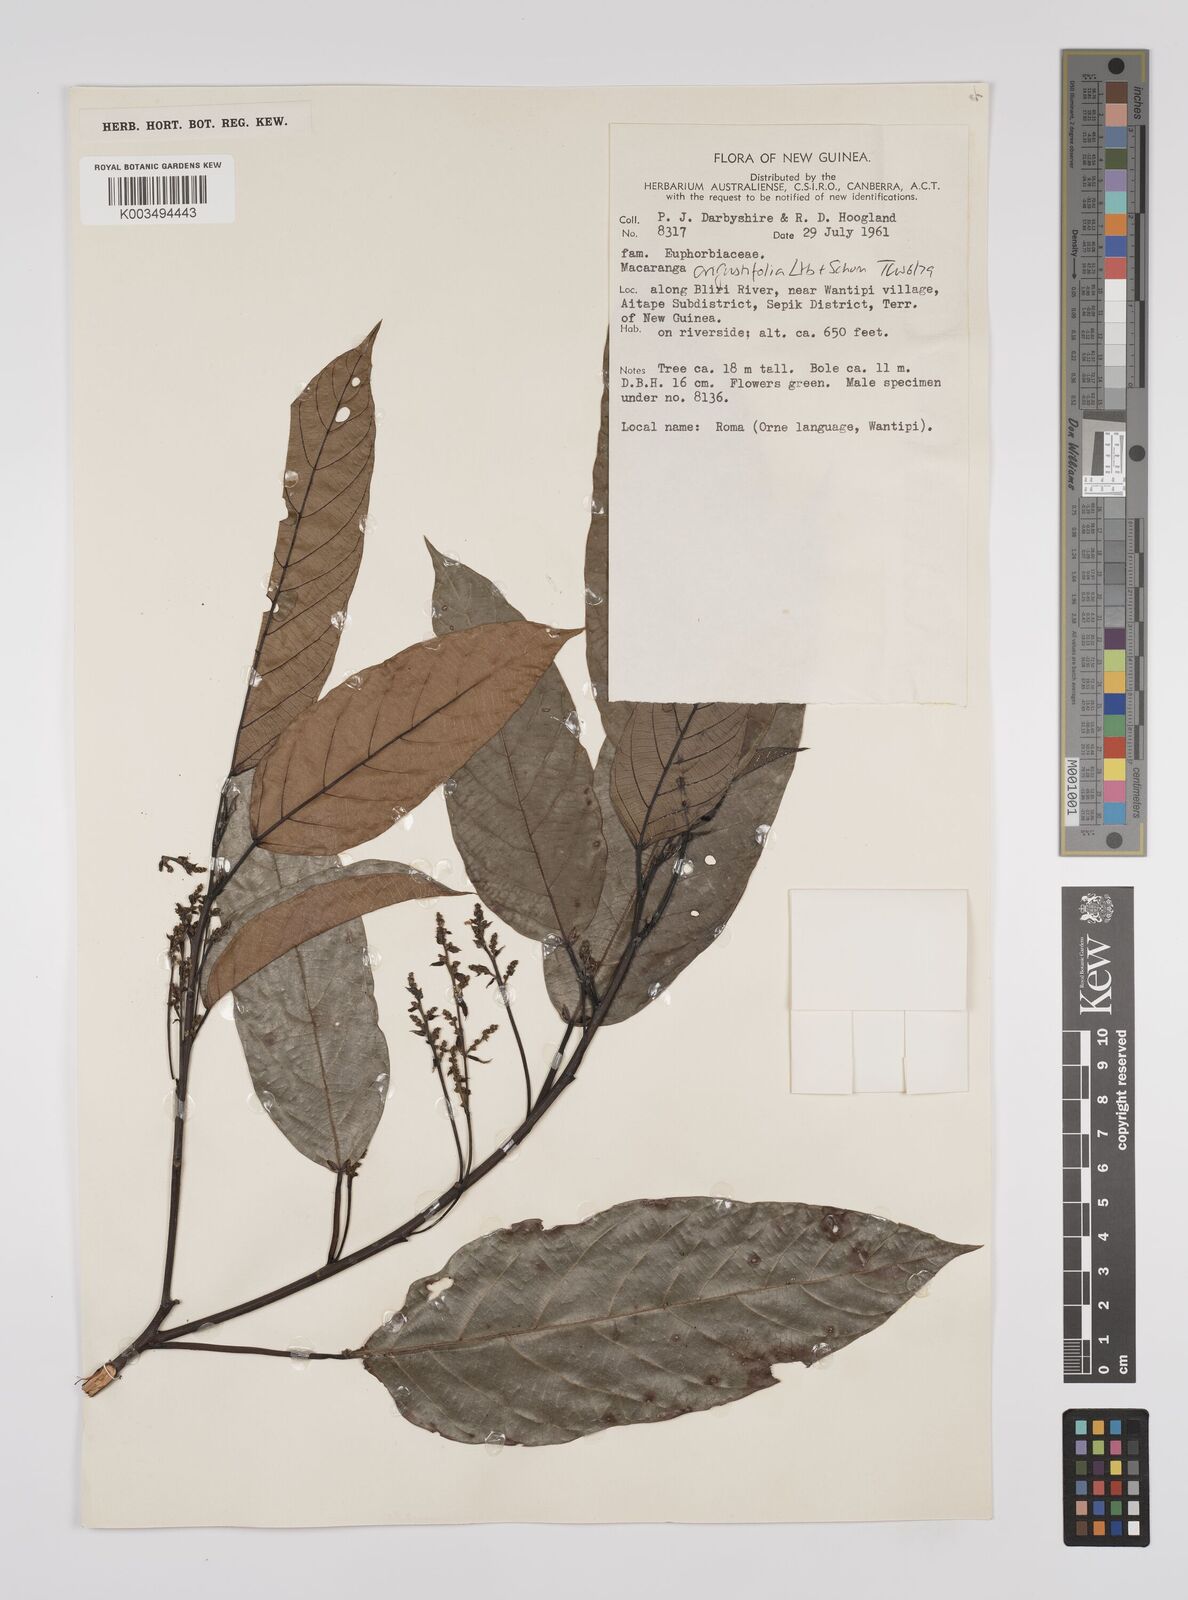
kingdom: Plantae
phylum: Tracheophyta
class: Magnoliopsida
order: Malpighiales
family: Euphorbiaceae
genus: Macaranga
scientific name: Macaranga angustifolia
